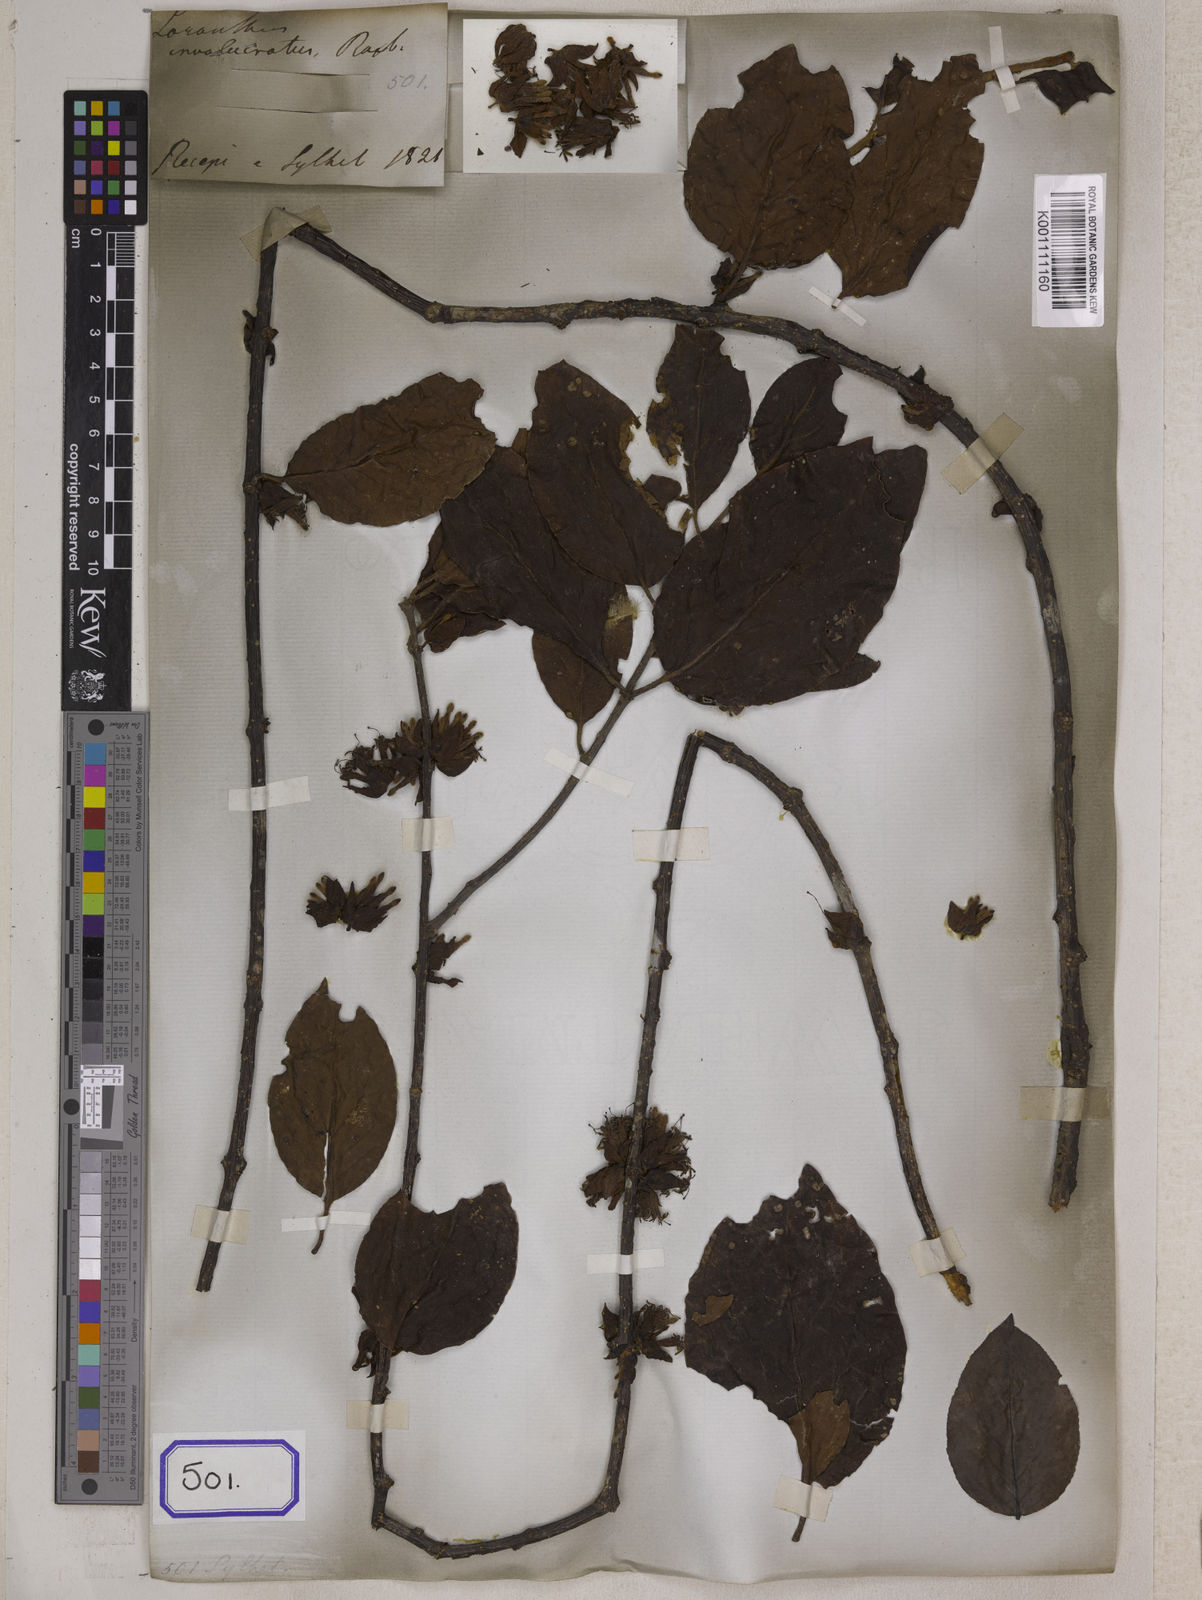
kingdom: Plantae
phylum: Tracheophyta
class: Magnoliopsida
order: Santalales
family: Loranthaceae
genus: Tolypanthus
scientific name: Tolypanthus involucratus
